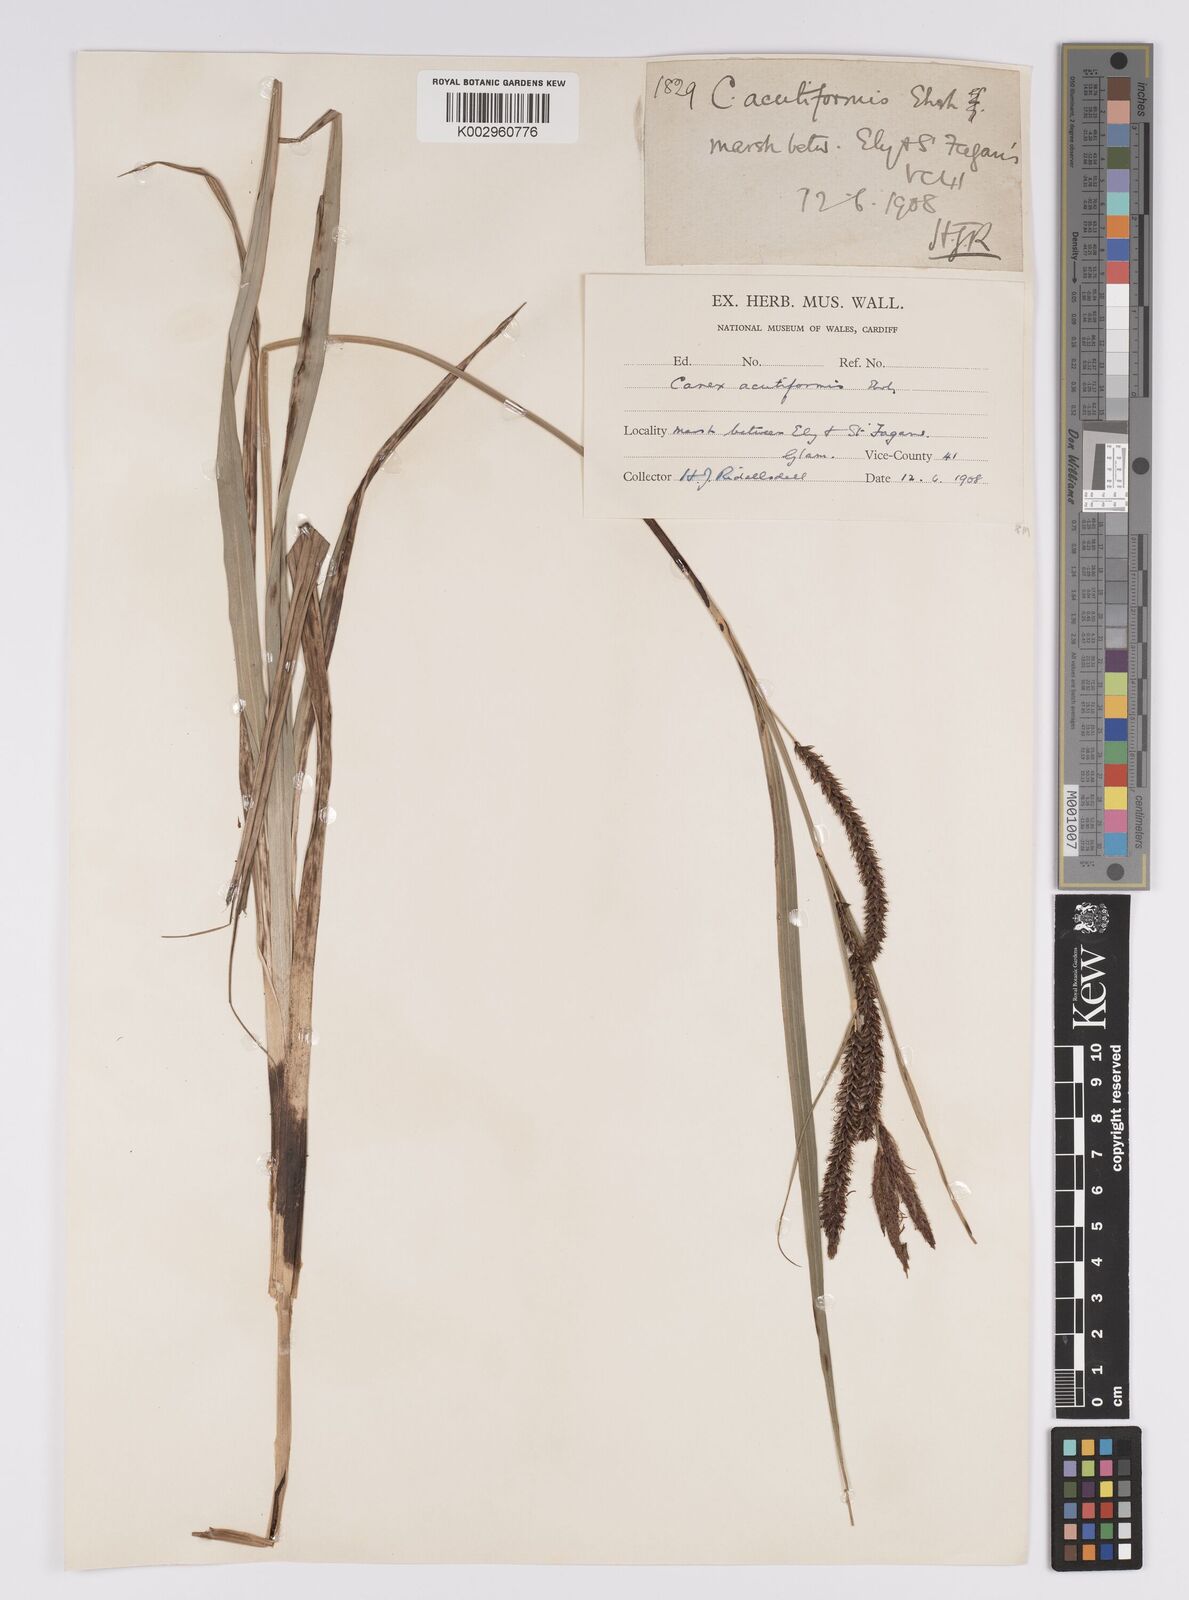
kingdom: Plantae
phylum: Tracheophyta
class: Liliopsida
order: Poales
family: Cyperaceae
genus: Carex
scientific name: Carex acutiformis
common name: Lesser pond-sedge
